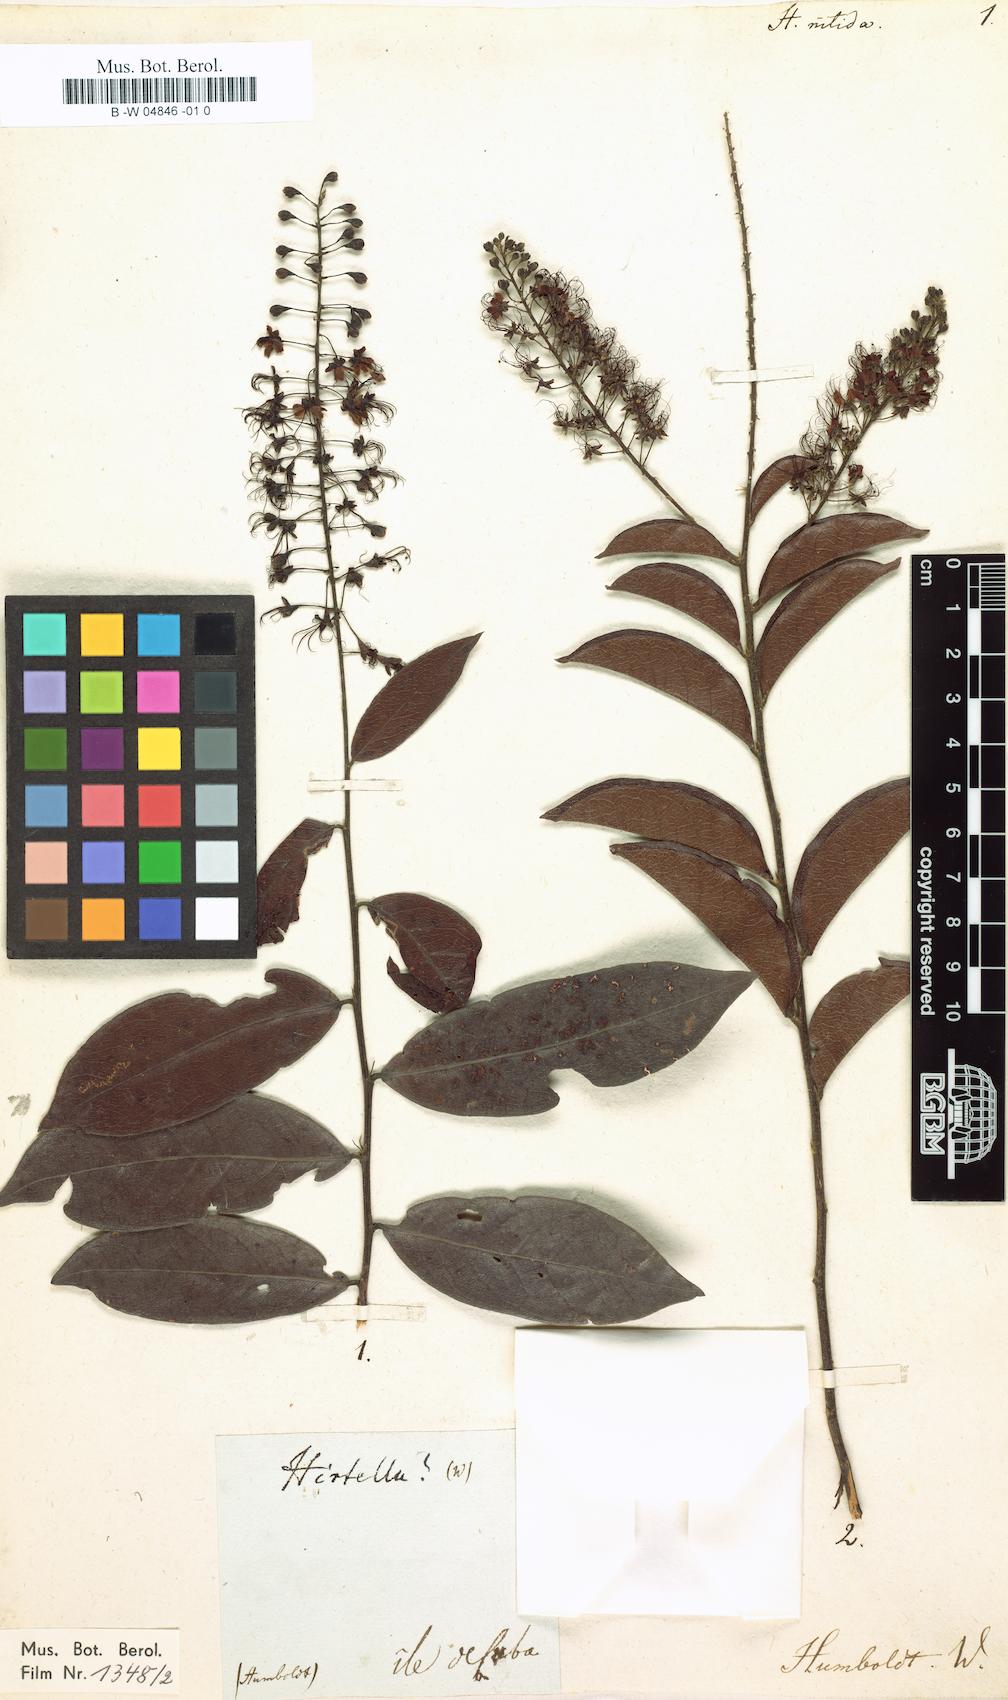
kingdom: Plantae
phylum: Tracheophyta
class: Magnoliopsida
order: Malpighiales
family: Chrysobalanaceae
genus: Hirtella
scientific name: Hirtella racemosa
